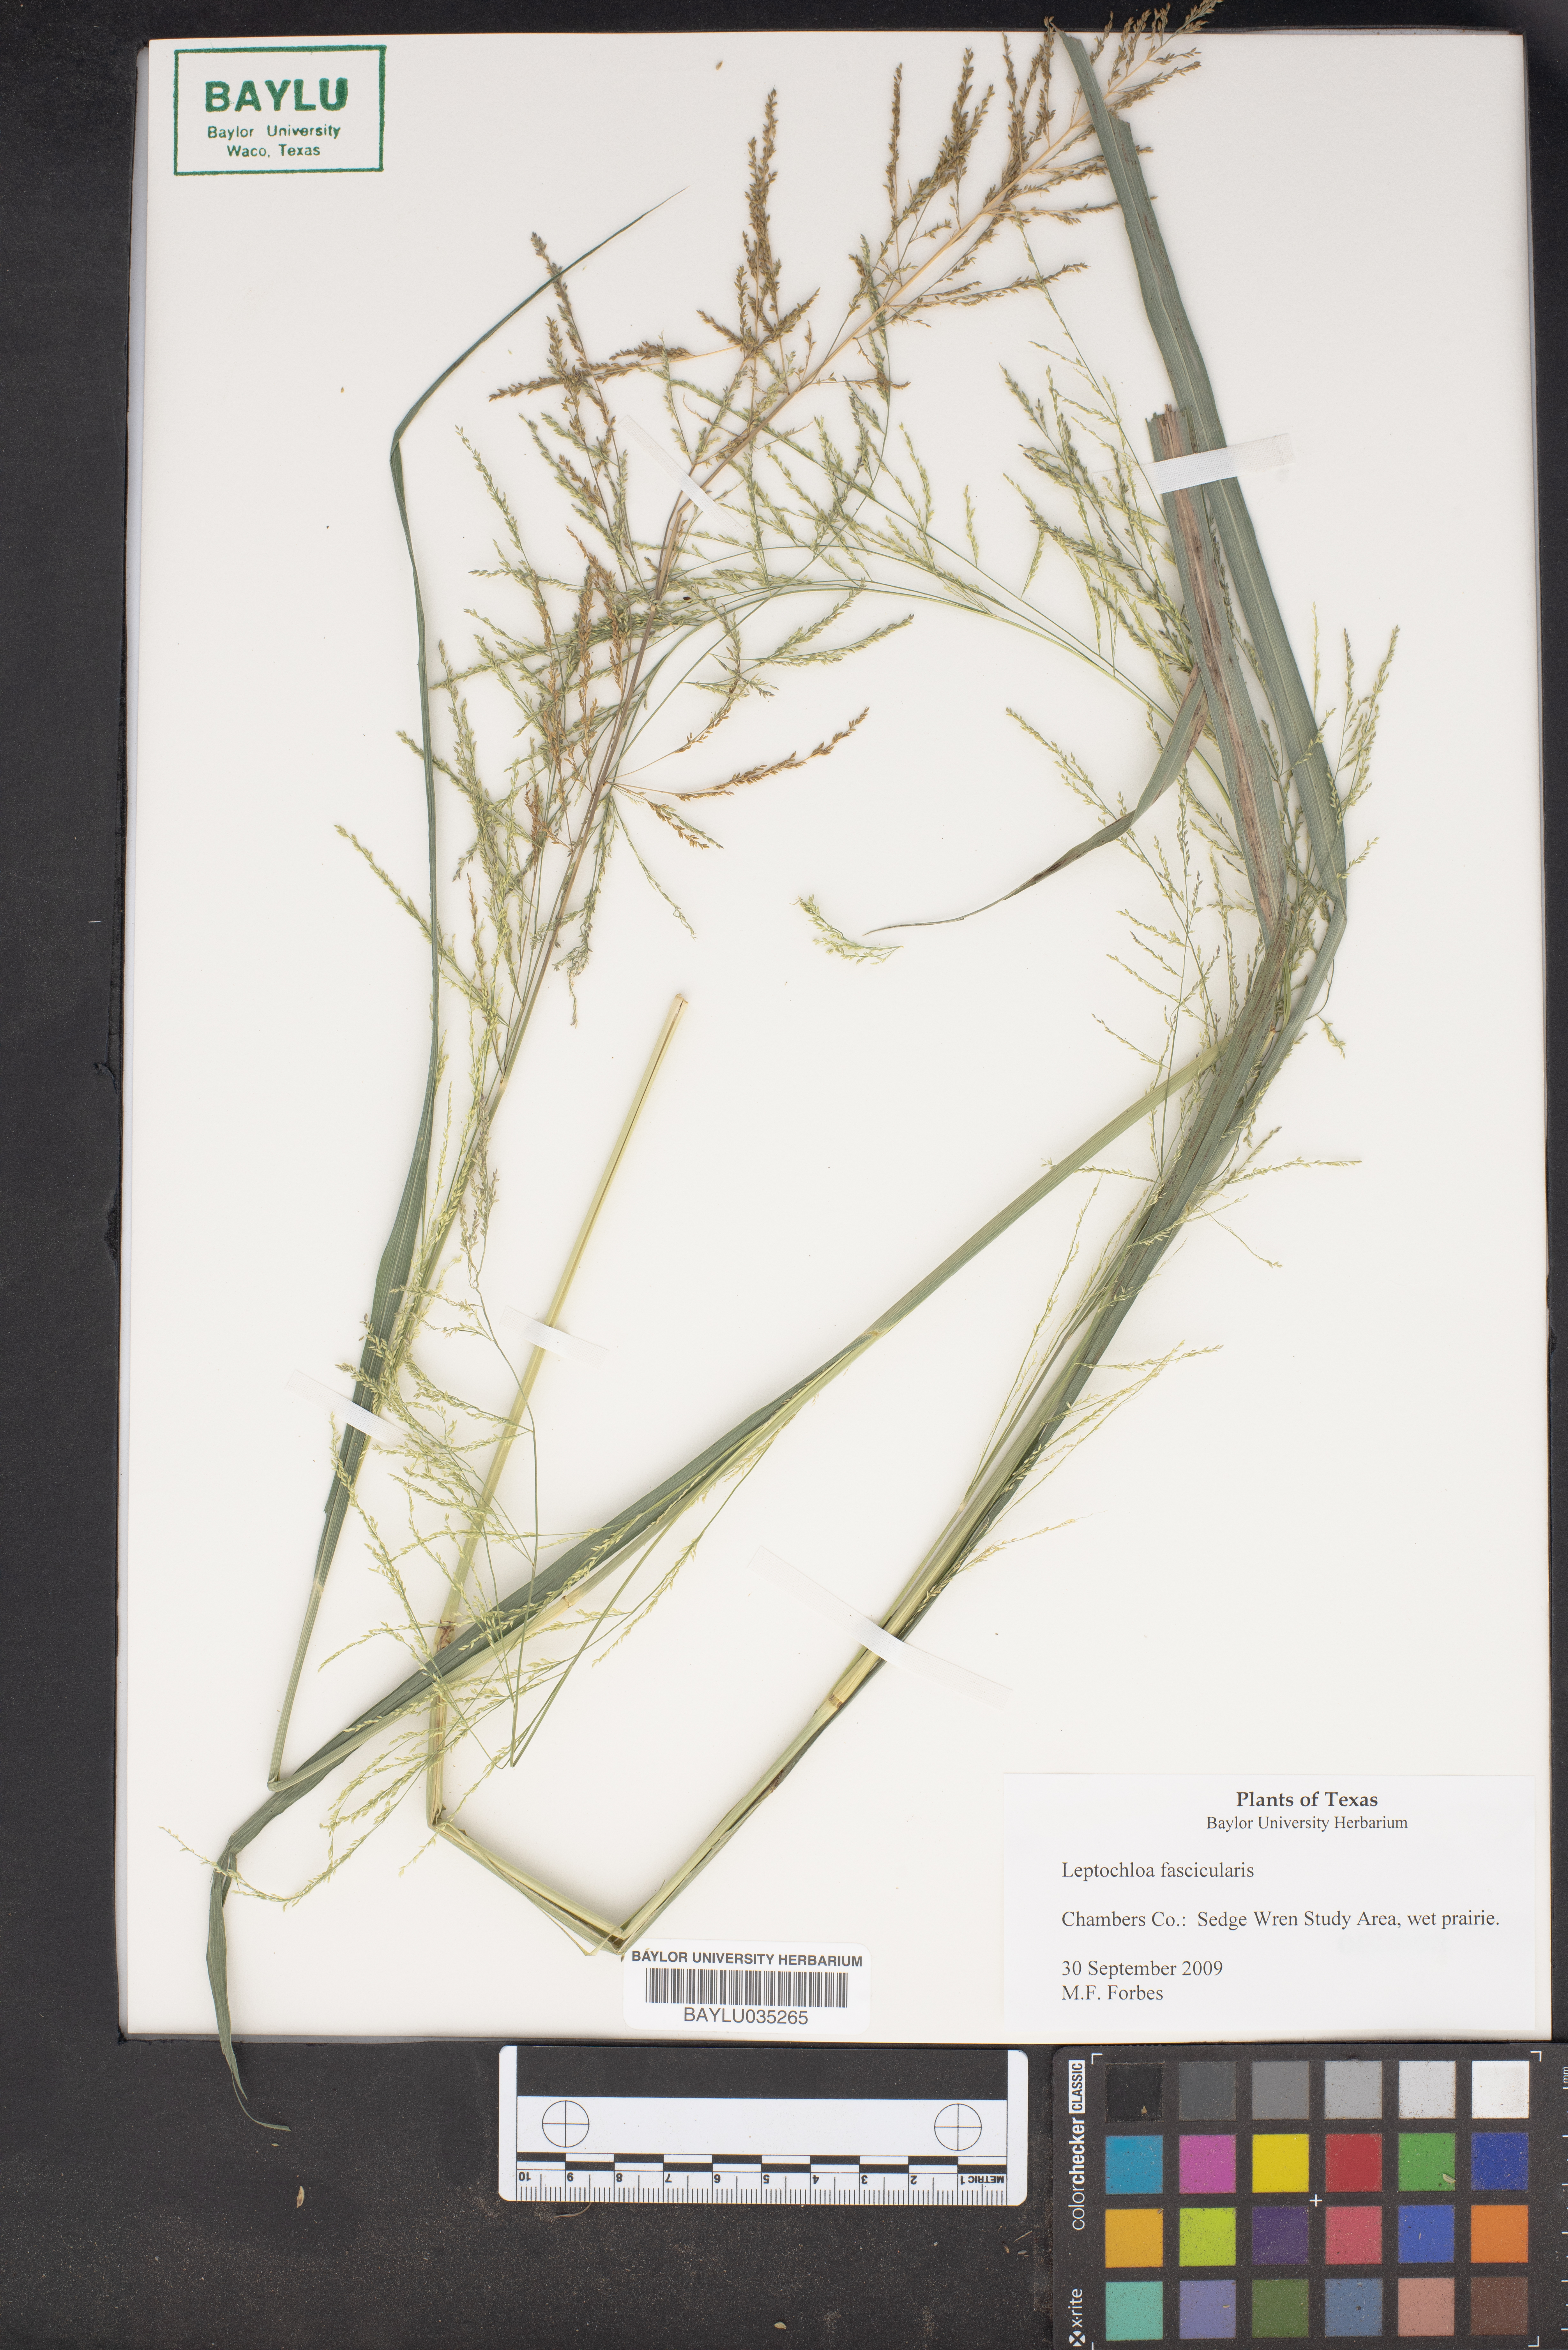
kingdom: Plantae
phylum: Tracheophyta
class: Liliopsida
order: Poales
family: Poaceae
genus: Diplachne
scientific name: Diplachne fusca
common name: Brown beetle grass
